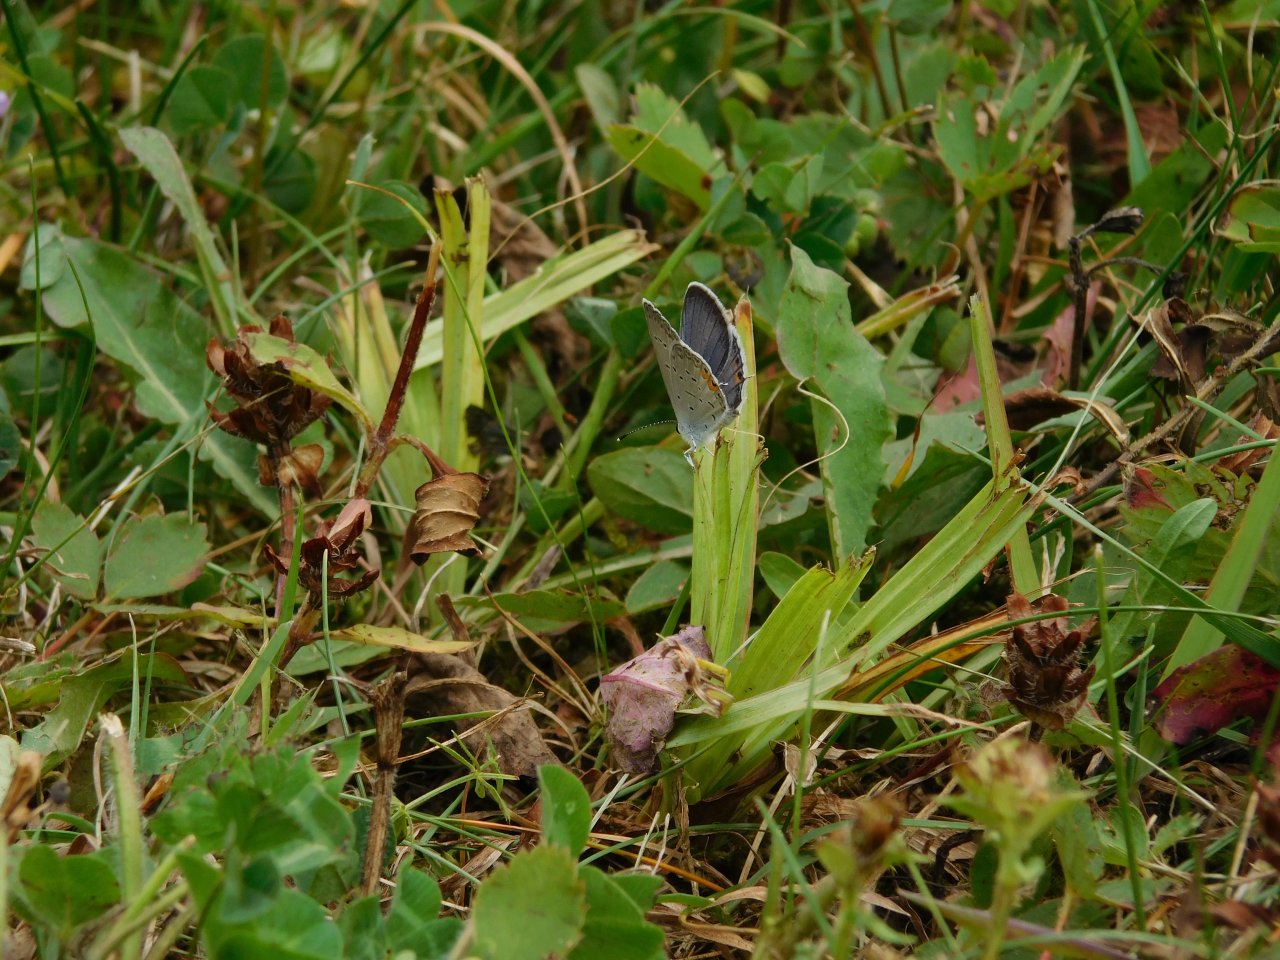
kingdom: Animalia
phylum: Arthropoda
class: Insecta
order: Lepidoptera
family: Lycaenidae
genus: Elkalyce
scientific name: Elkalyce comyntas
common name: Eastern Tailed-Blue
